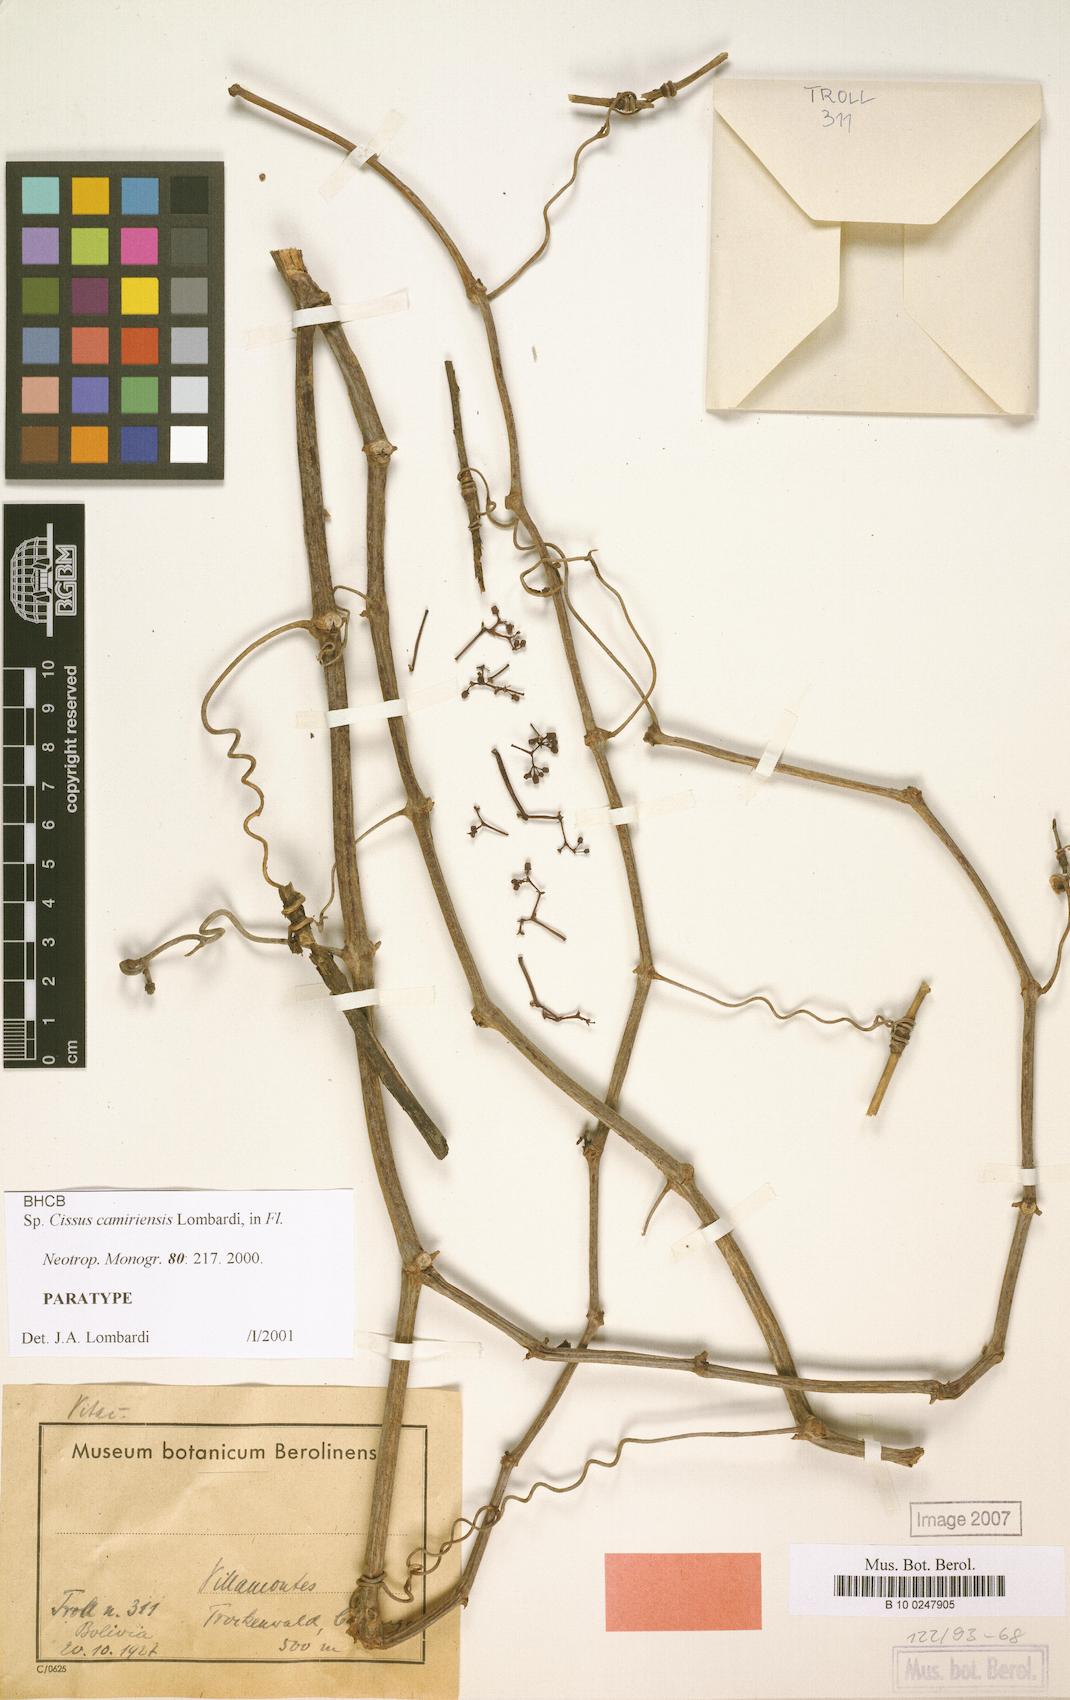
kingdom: Plantae
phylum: Tracheophyta
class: Magnoliopsida
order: Vitales
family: Vitaceae
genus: Cissus
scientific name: Cissus camiriensis
